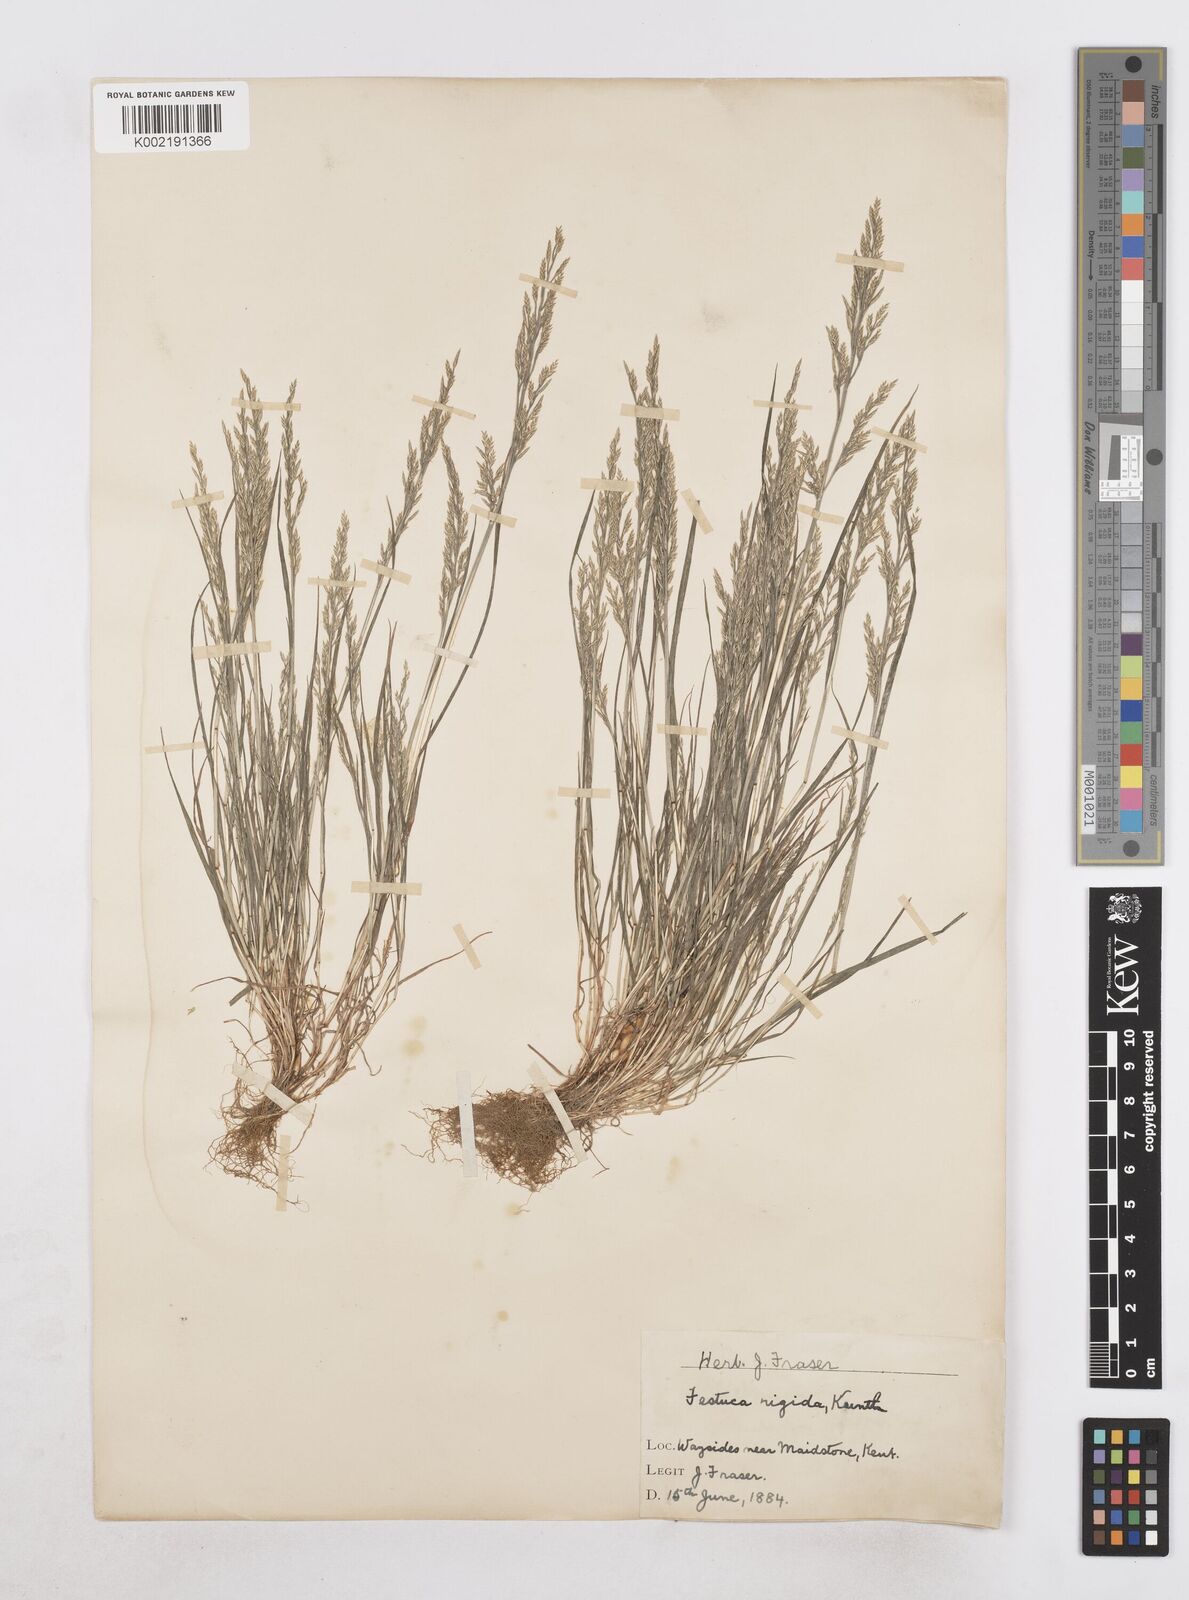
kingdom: Plantae
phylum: Tracheophyta
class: Liliopsida
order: Poales
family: Poaceae
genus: Catapodium
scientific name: Catapodium rigidum
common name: Fern-grass
